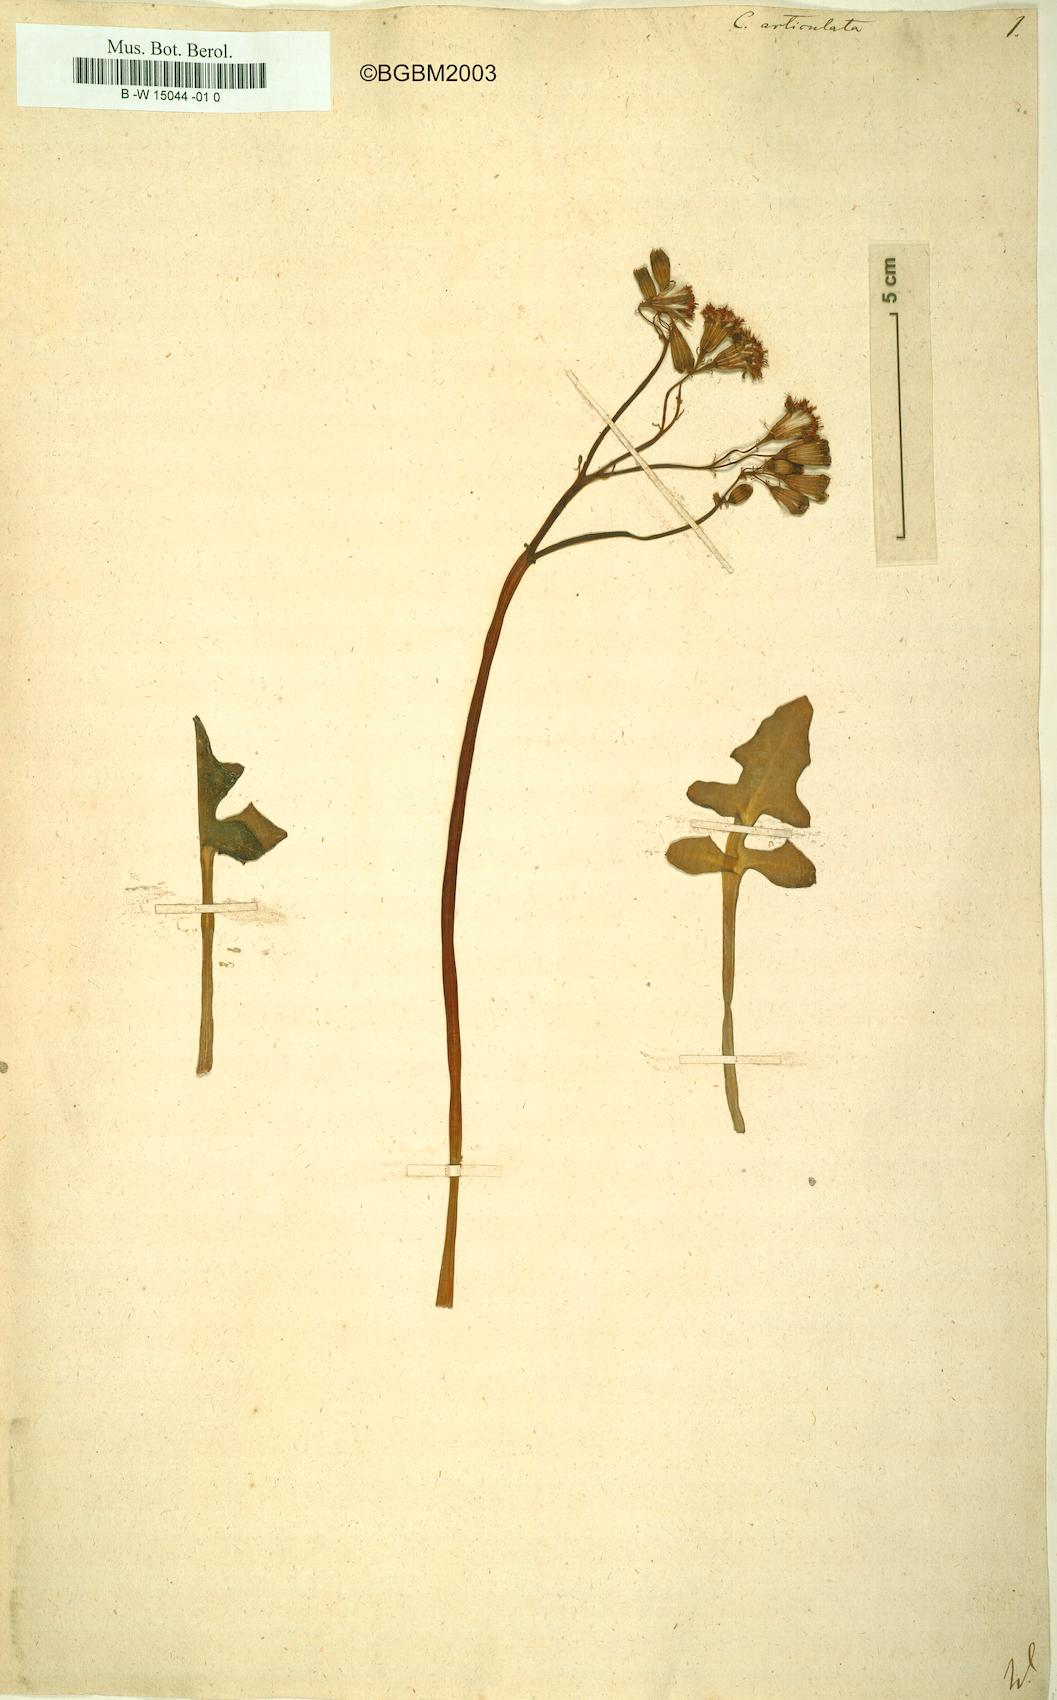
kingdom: Plantae
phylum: Tracheophyta
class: Magnoliopsida
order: Asterales
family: Asteraceae
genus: Curio
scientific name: Curio articulatus
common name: Candleplant
